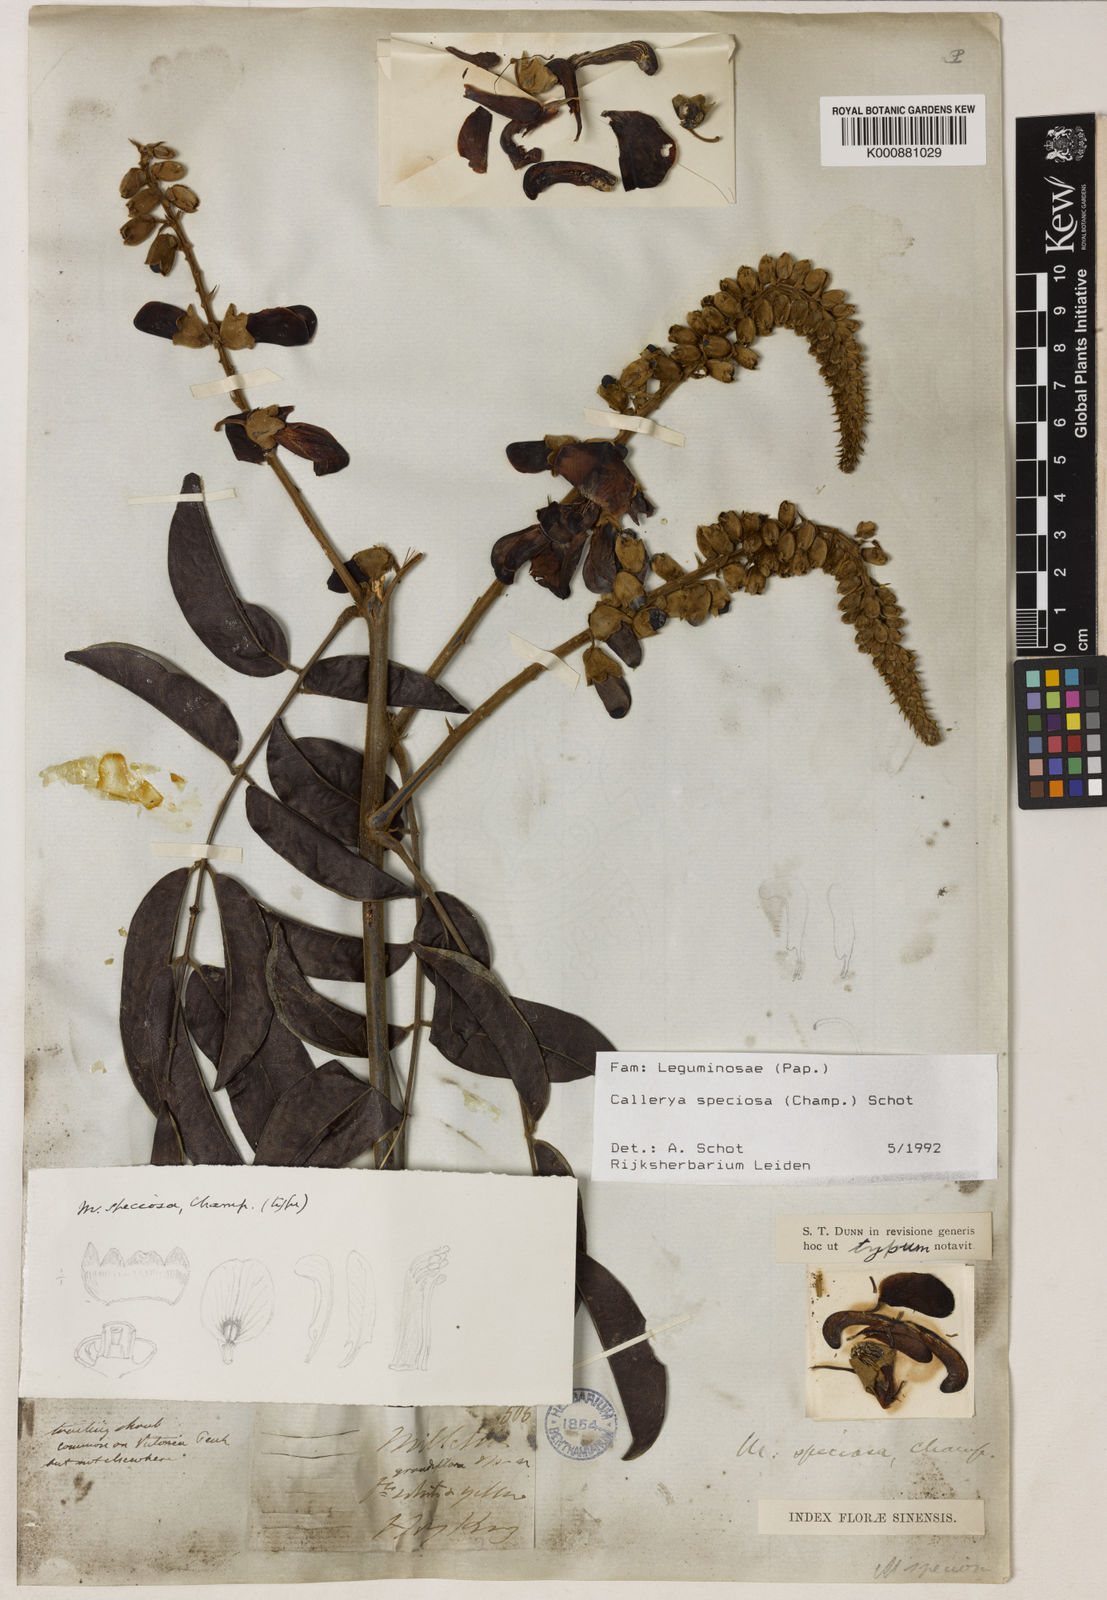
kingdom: Plantae
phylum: Tracheophyta
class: Magnoliopsida
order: Fabales
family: Fabaceae
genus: Nanhaia
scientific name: Nanhaia speciosa
